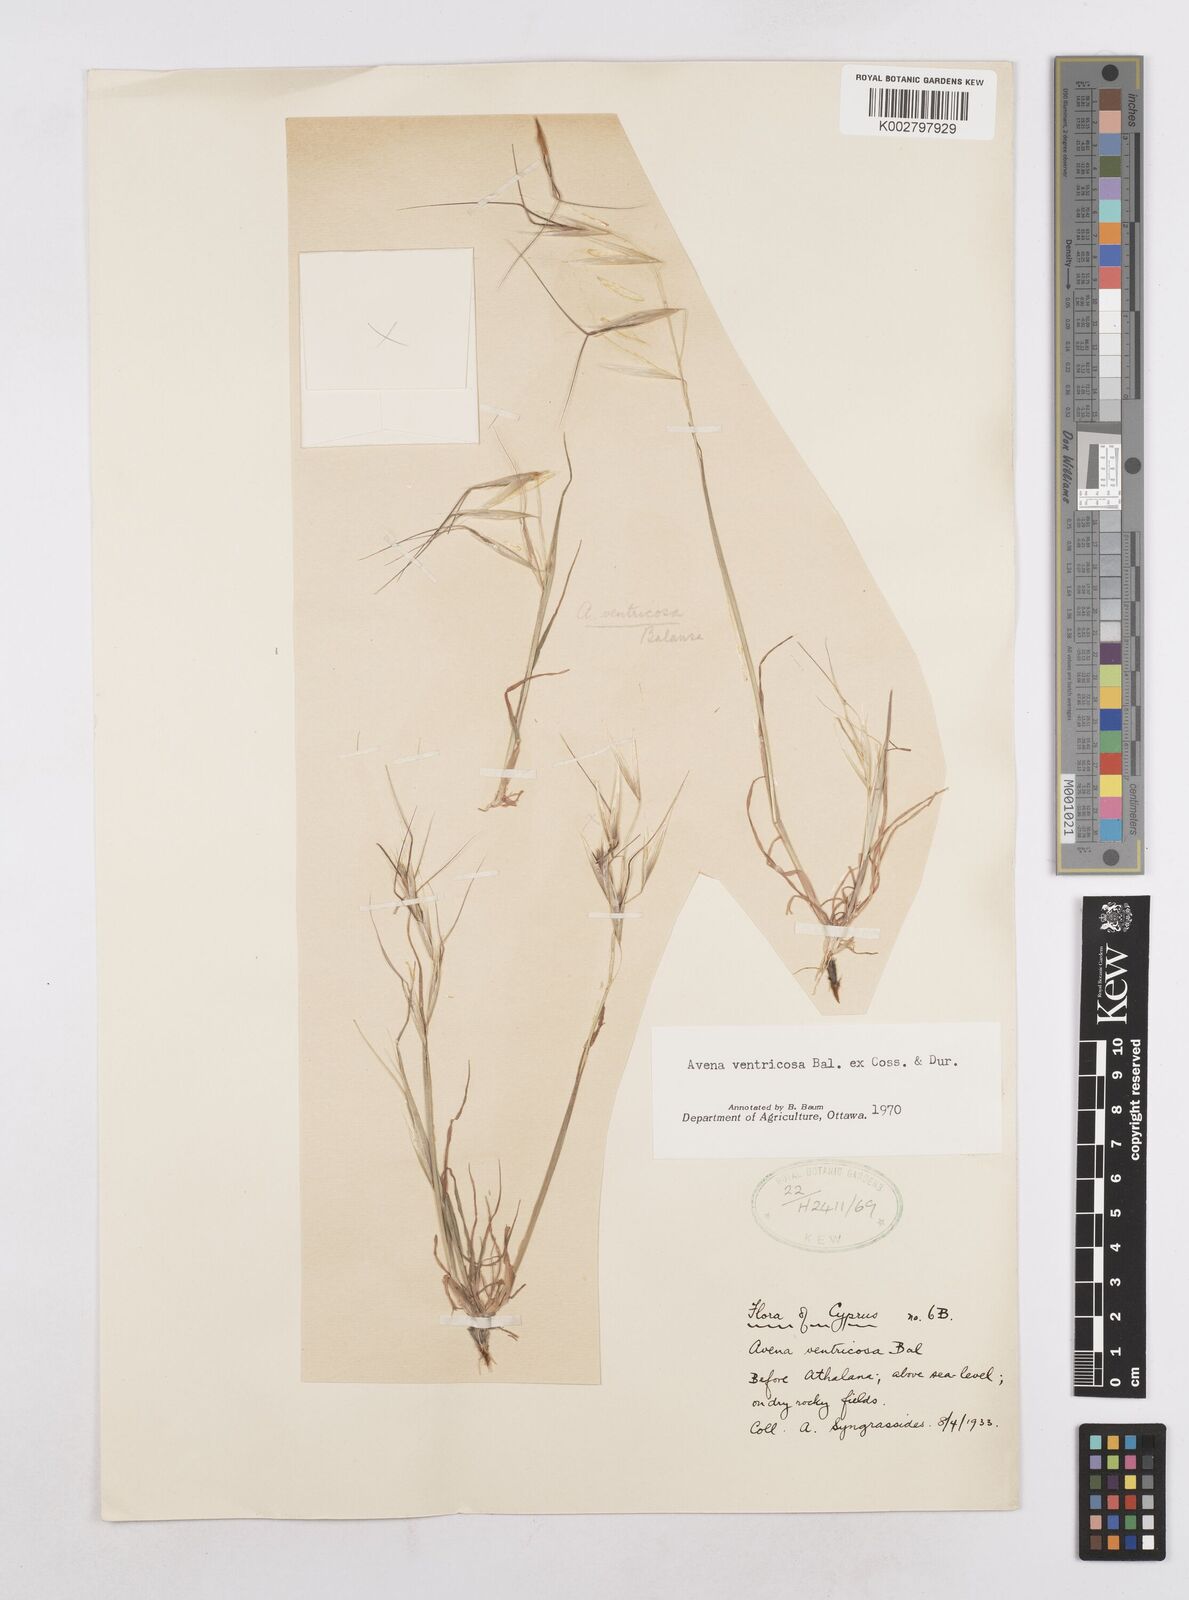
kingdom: Plantae
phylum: Tracheophyta
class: Liliopsida
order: Poales
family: Poaceae
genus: Avena
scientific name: Avena ventricosa
